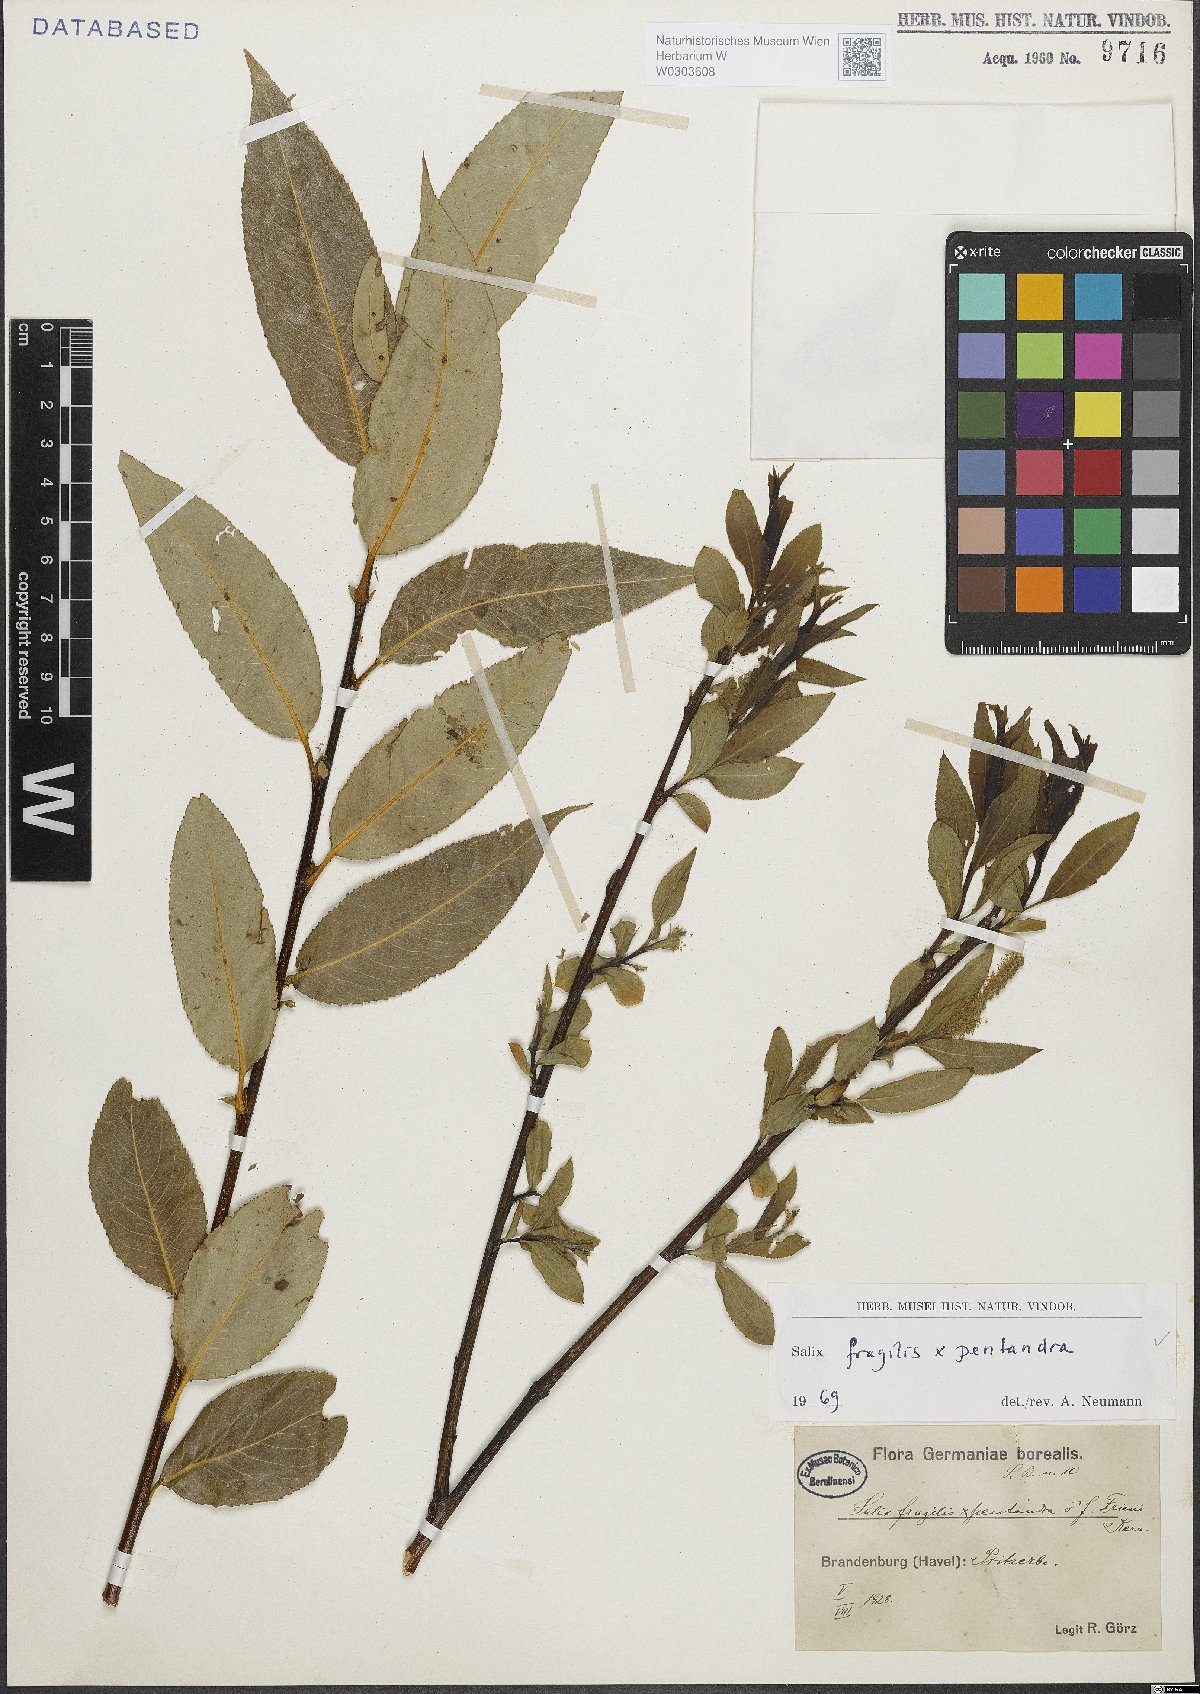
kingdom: Plantae
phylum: Tracheophyta
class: Magnoliopsida
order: Malpighiales
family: Salicaceae
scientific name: Salicaceae
